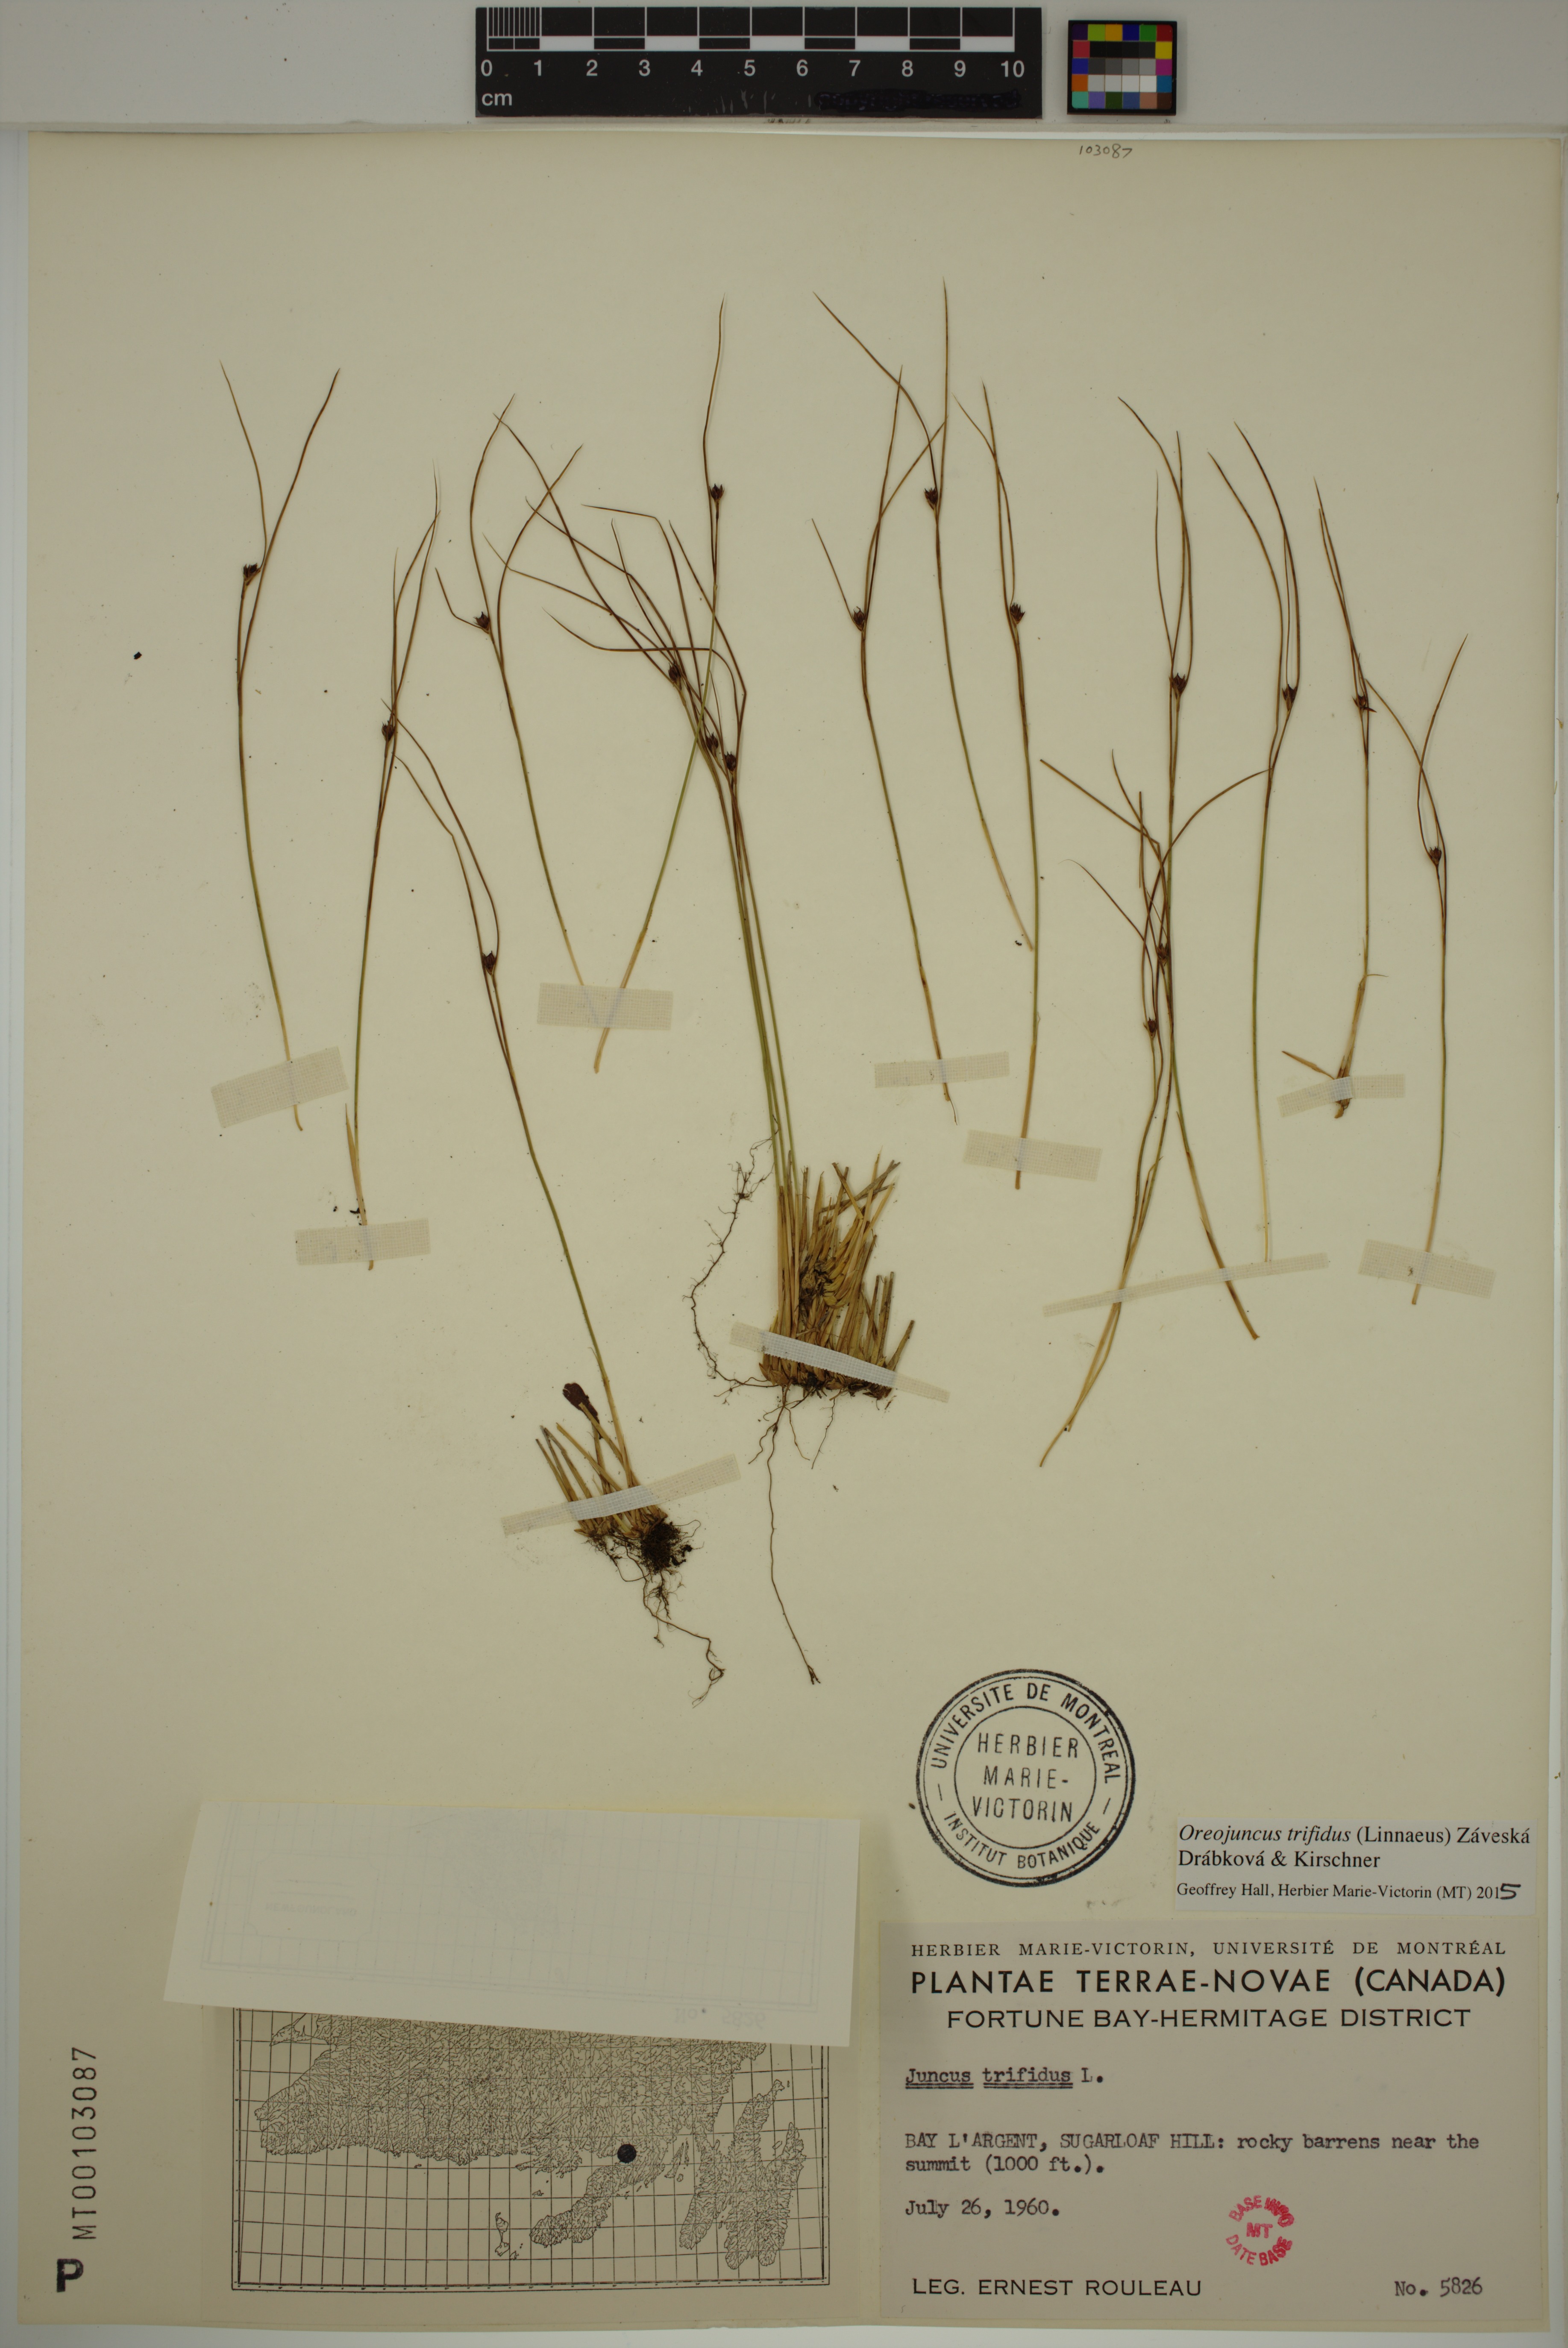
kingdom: Plantae
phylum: Tracheophyta
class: Liliopsida
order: Poales
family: Juncaceae
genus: Oreojuncus
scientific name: Oreojuncus trifidus
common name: Highland rush
